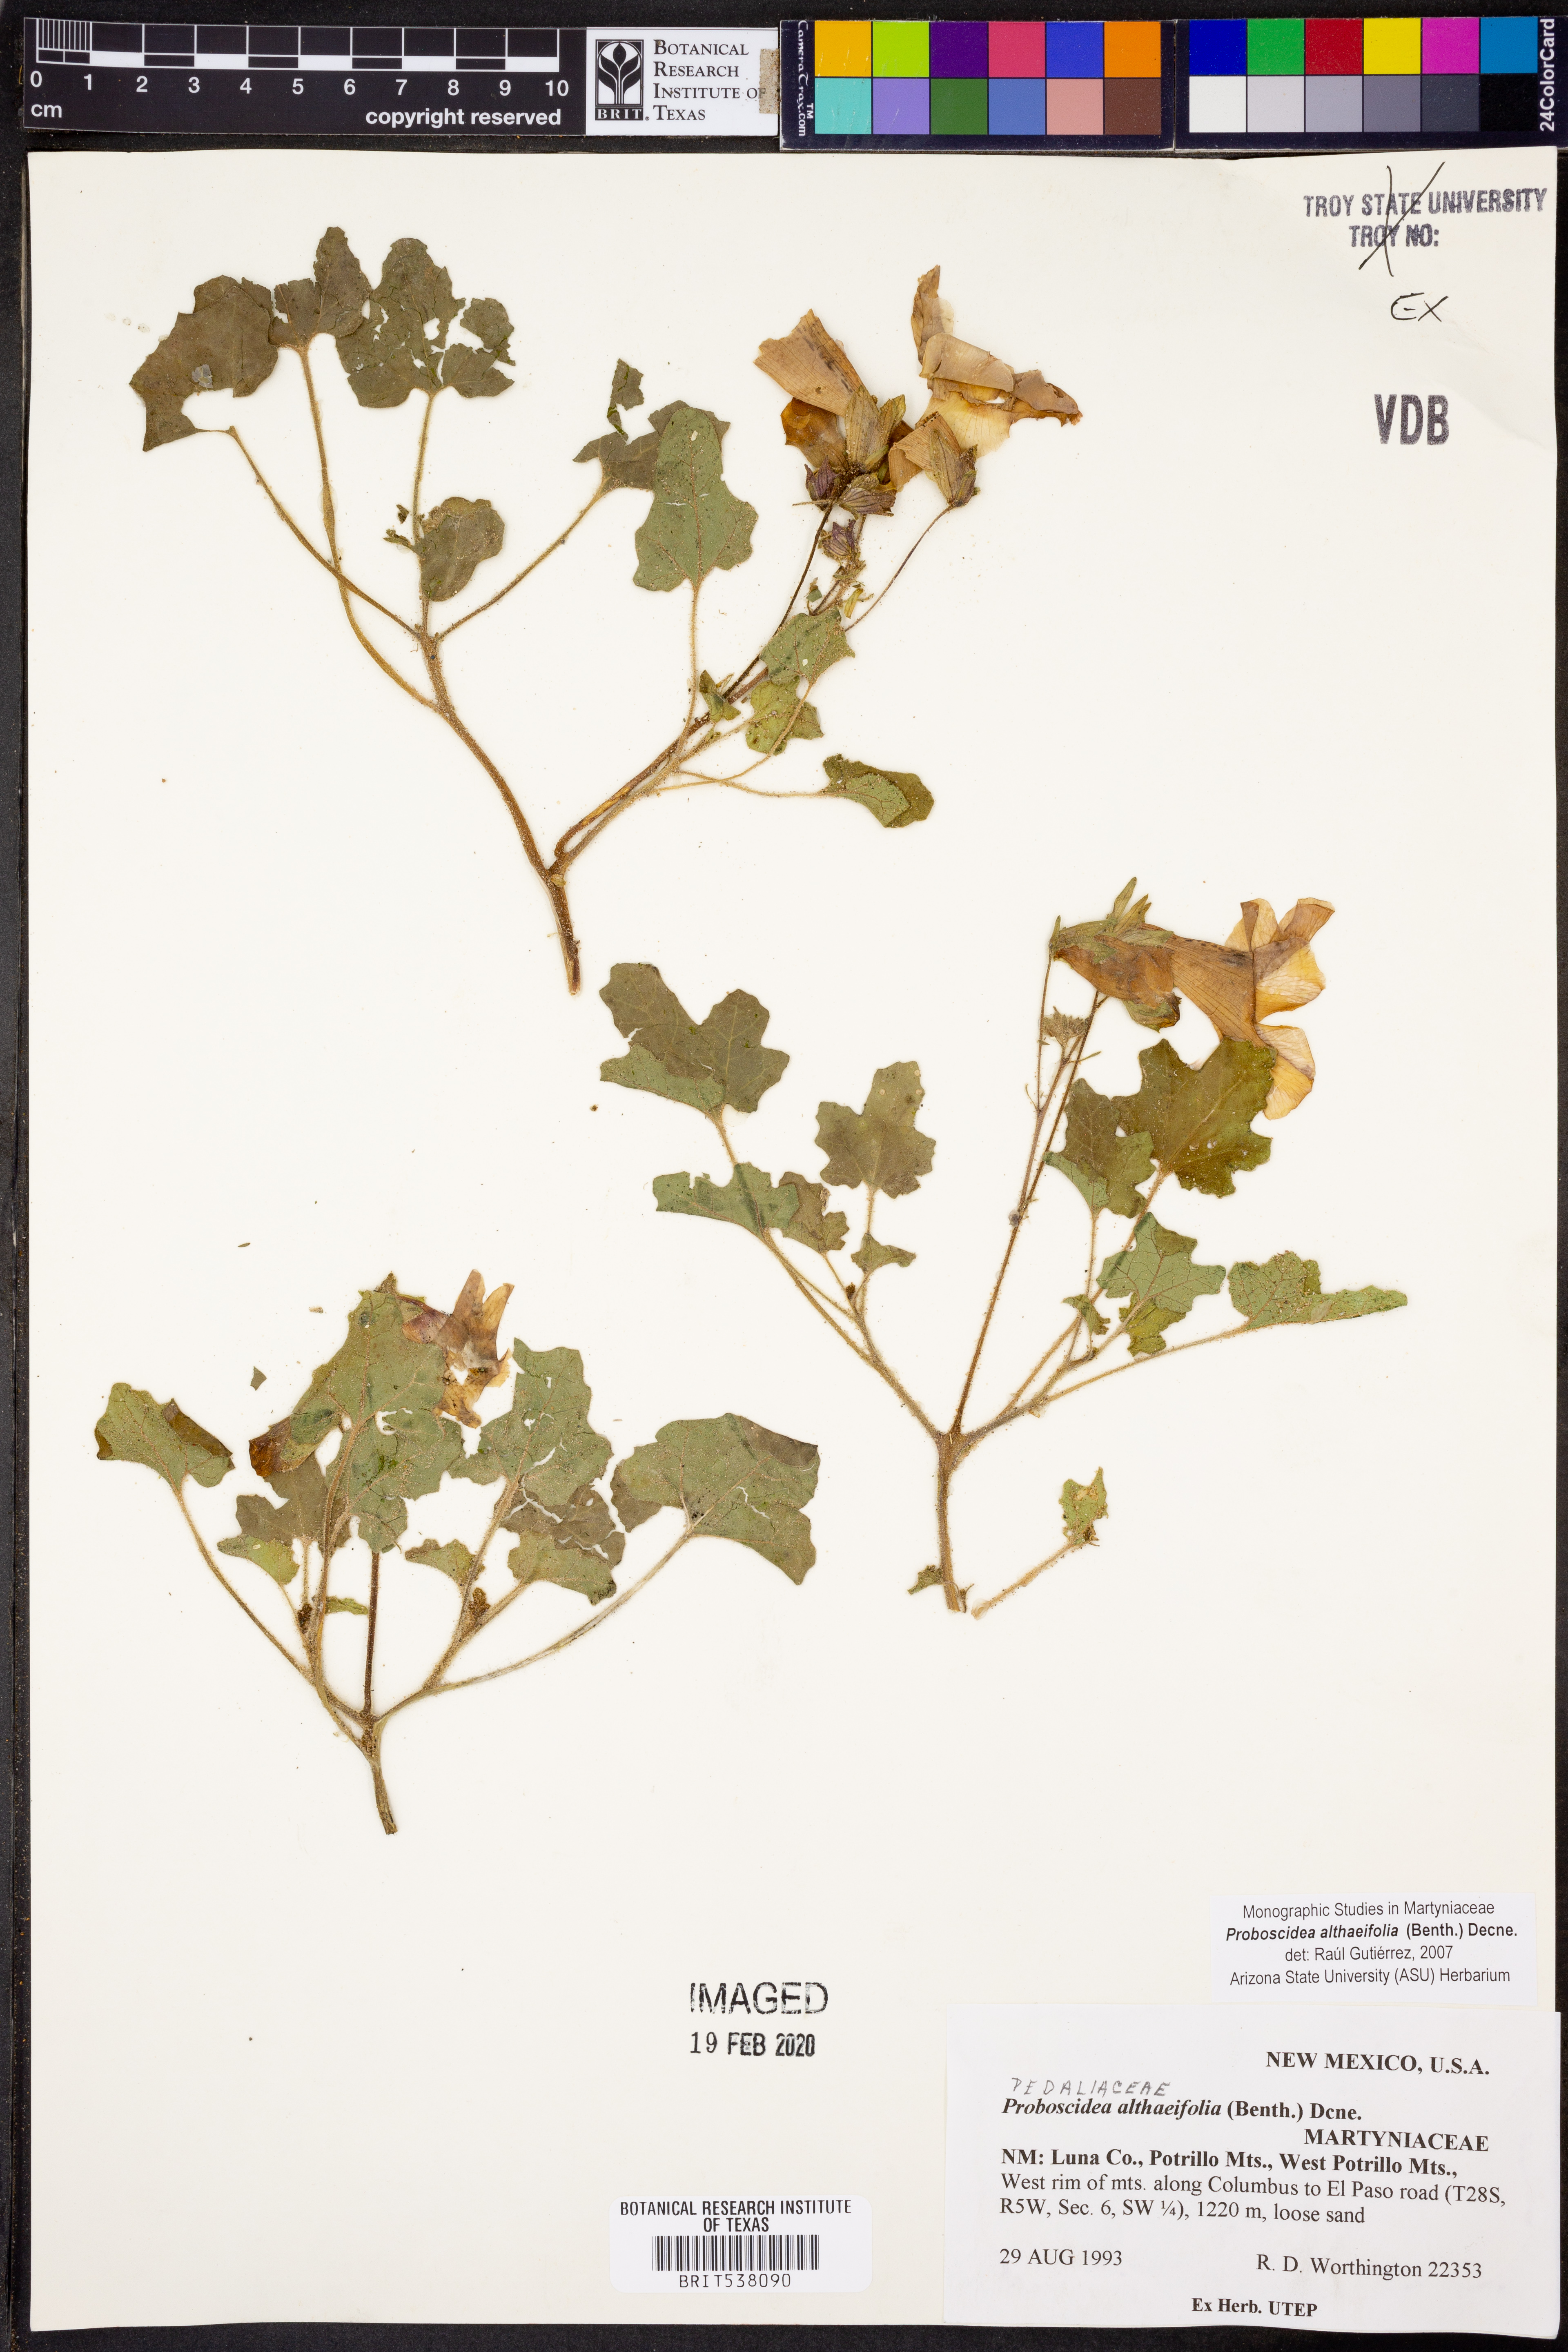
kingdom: Plantae
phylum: Tracheophyta
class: Magnoliopsida
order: Lamiales
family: Martyniaceae
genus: Proboscidea
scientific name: Proboscidea althaeifolia
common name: Desert unicorn-plant
